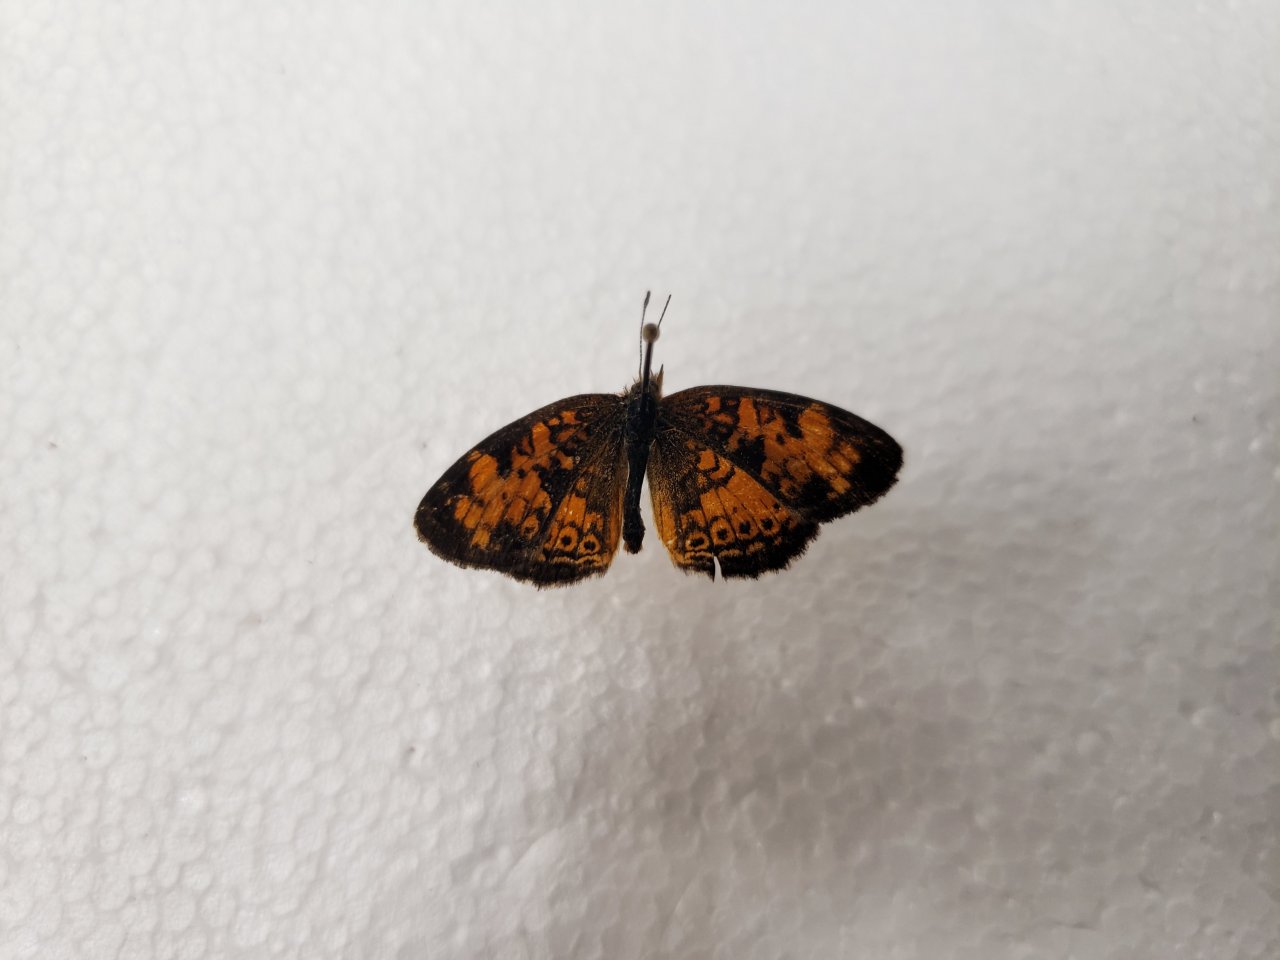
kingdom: Animalia
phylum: Arthropoda
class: Insecta
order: Lepidoptera
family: Nymphalidae
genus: Phyciodes
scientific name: Phyciodes tharos
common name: Northern Crescent
